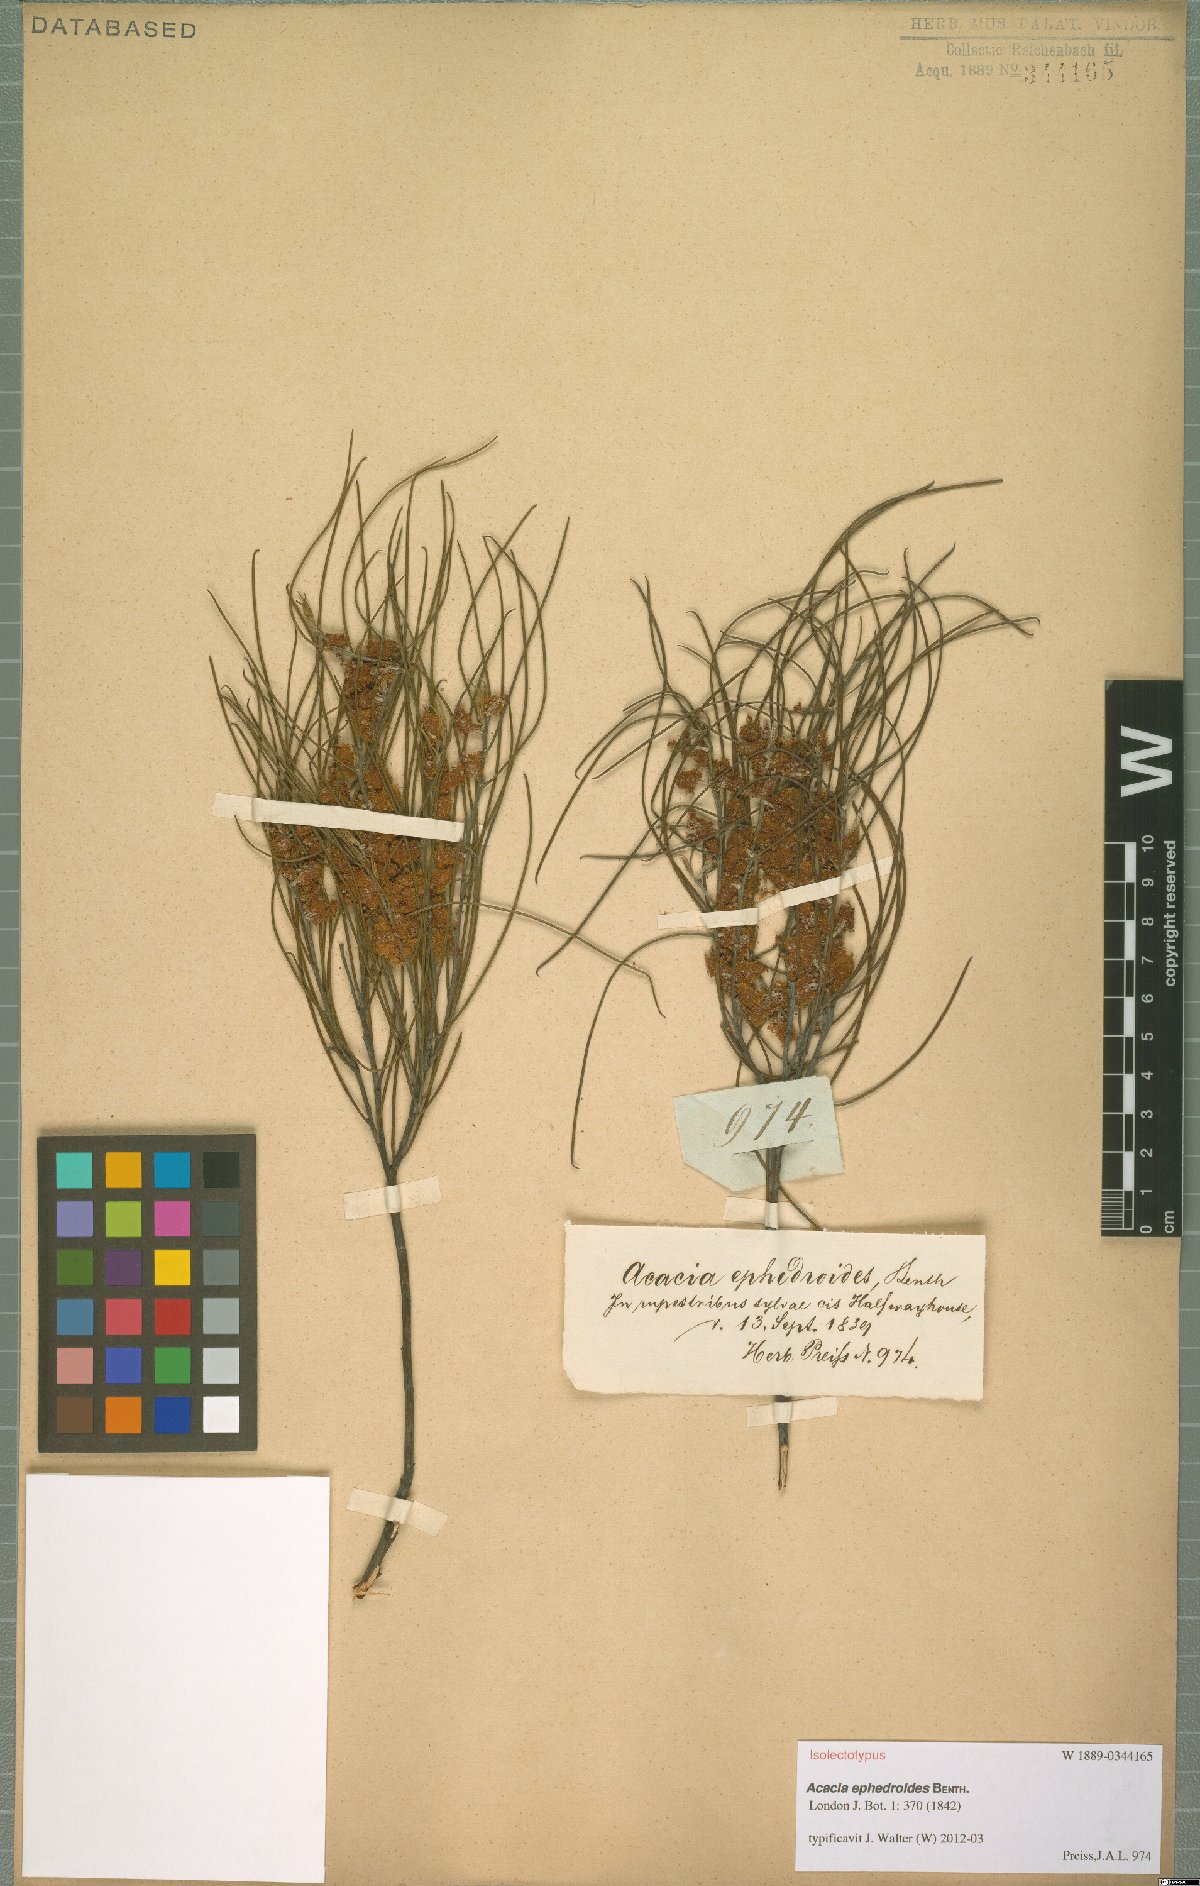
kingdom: Plantae
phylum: Tracheophyta
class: Magnoliopsida
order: Fabales
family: Fabaceae
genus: Acacia
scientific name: Acacia ephedroides
